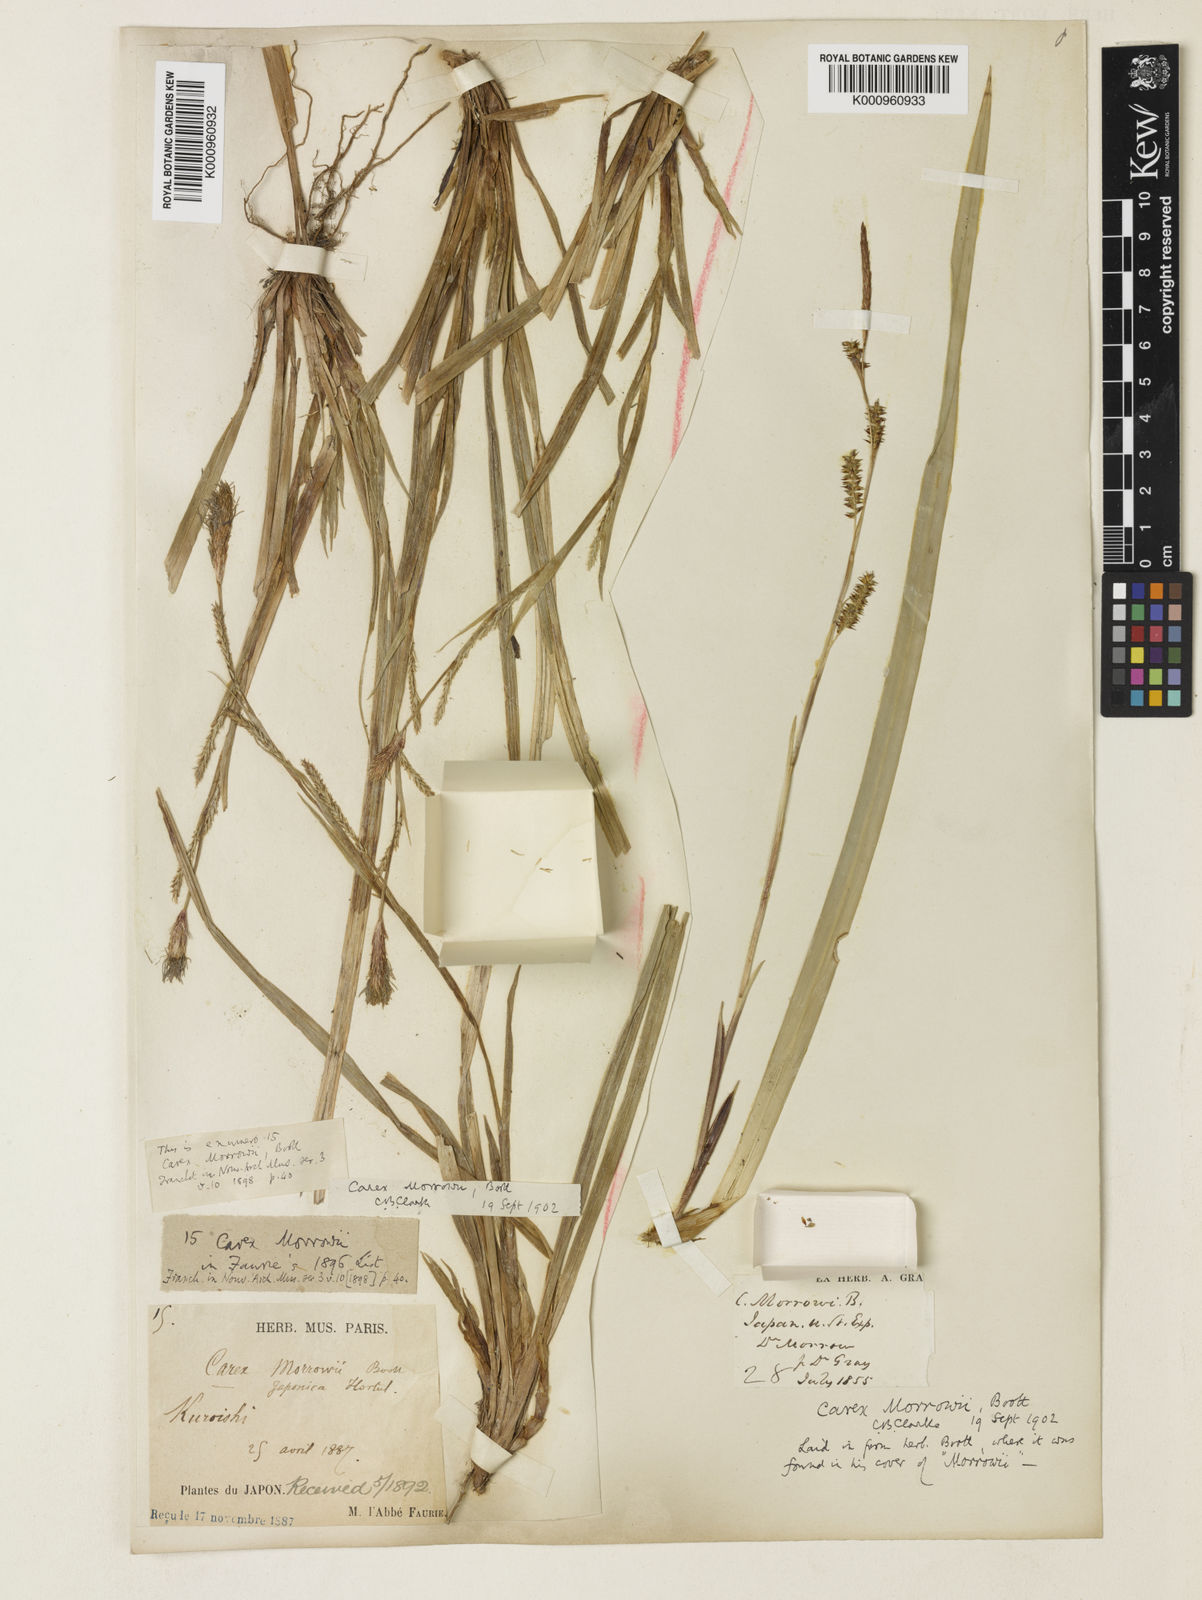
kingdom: Plantae
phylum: Tracheophyta
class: Liliopsida
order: Poales
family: Cyperaceae
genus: Carex
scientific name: Carex morrowii
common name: Japanese sedge
